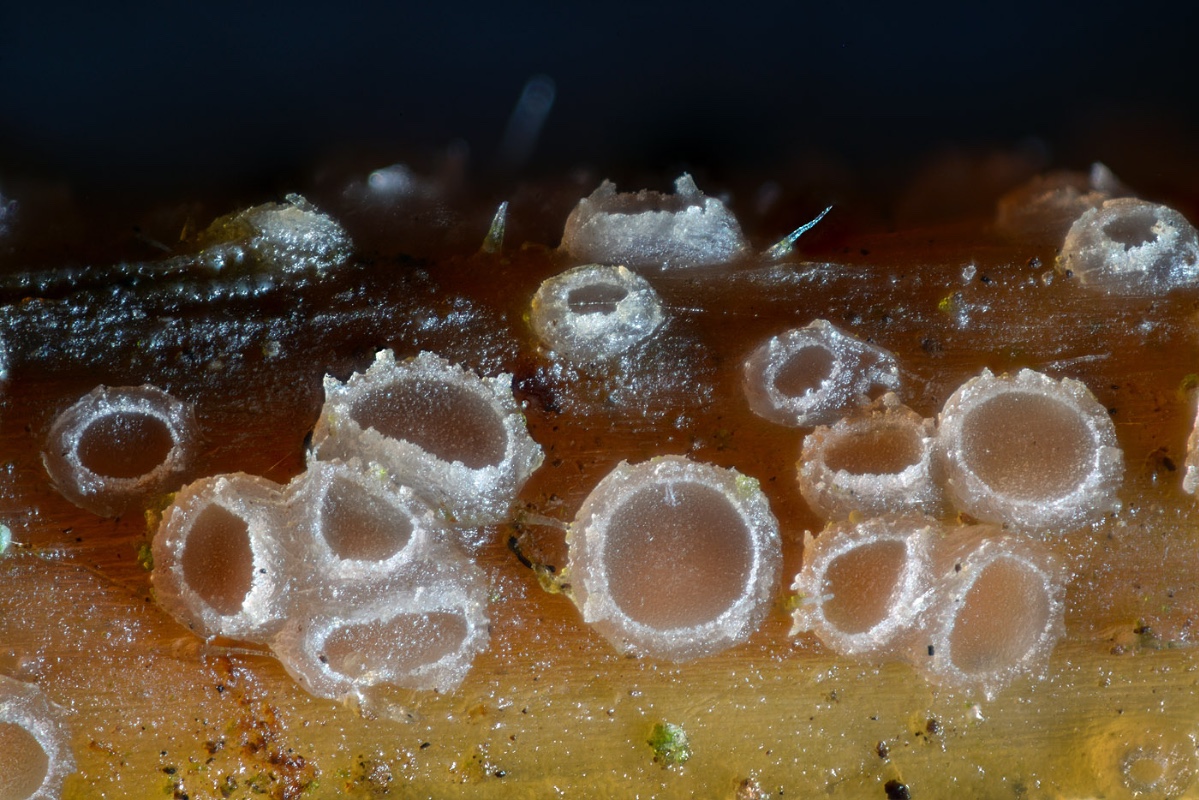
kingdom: Fungi
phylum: Ascomycota
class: Leotiomycetes
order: Helotiales
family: Calloriaceae
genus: Diplonaevia
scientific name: Diplonaevia bresadolae
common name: rosa orangeskive
